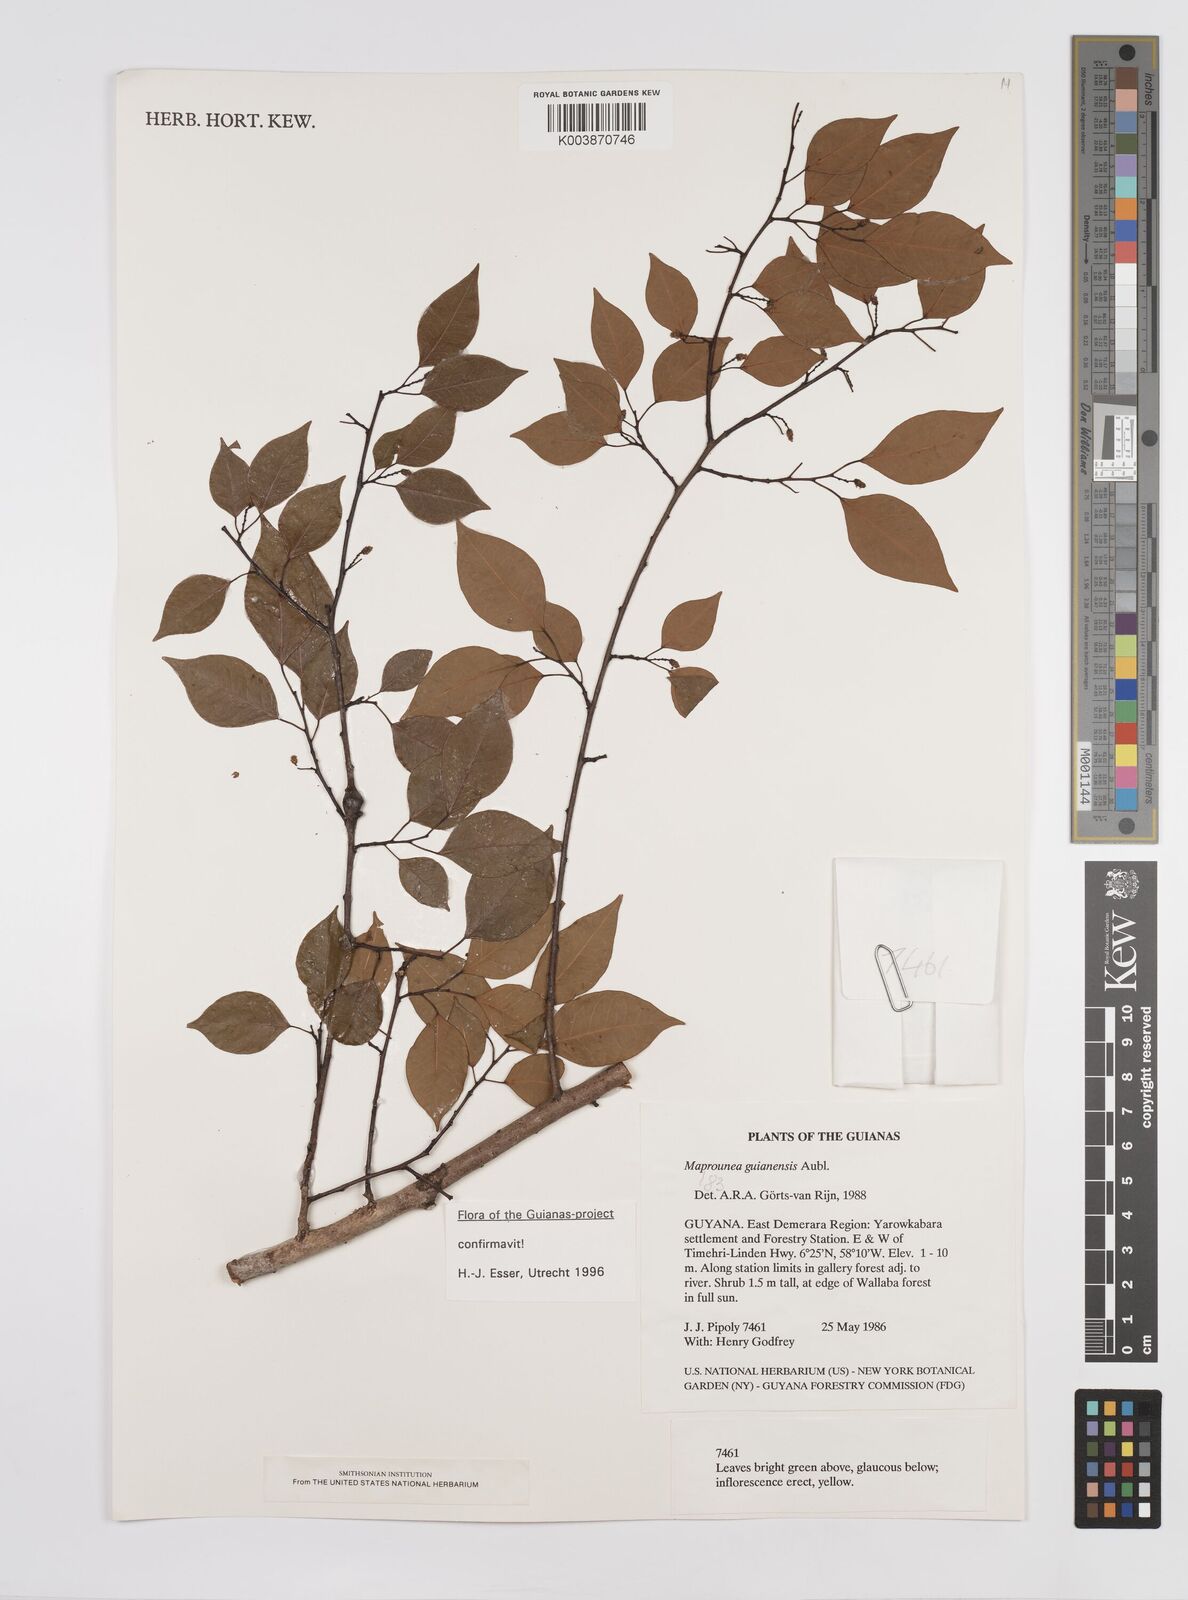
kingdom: Plantae
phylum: Tracheophyta
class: Magnoliopsida
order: Malpighiales
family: Euphorbiaceae
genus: Maprounea
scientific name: Maprounea guianensis
